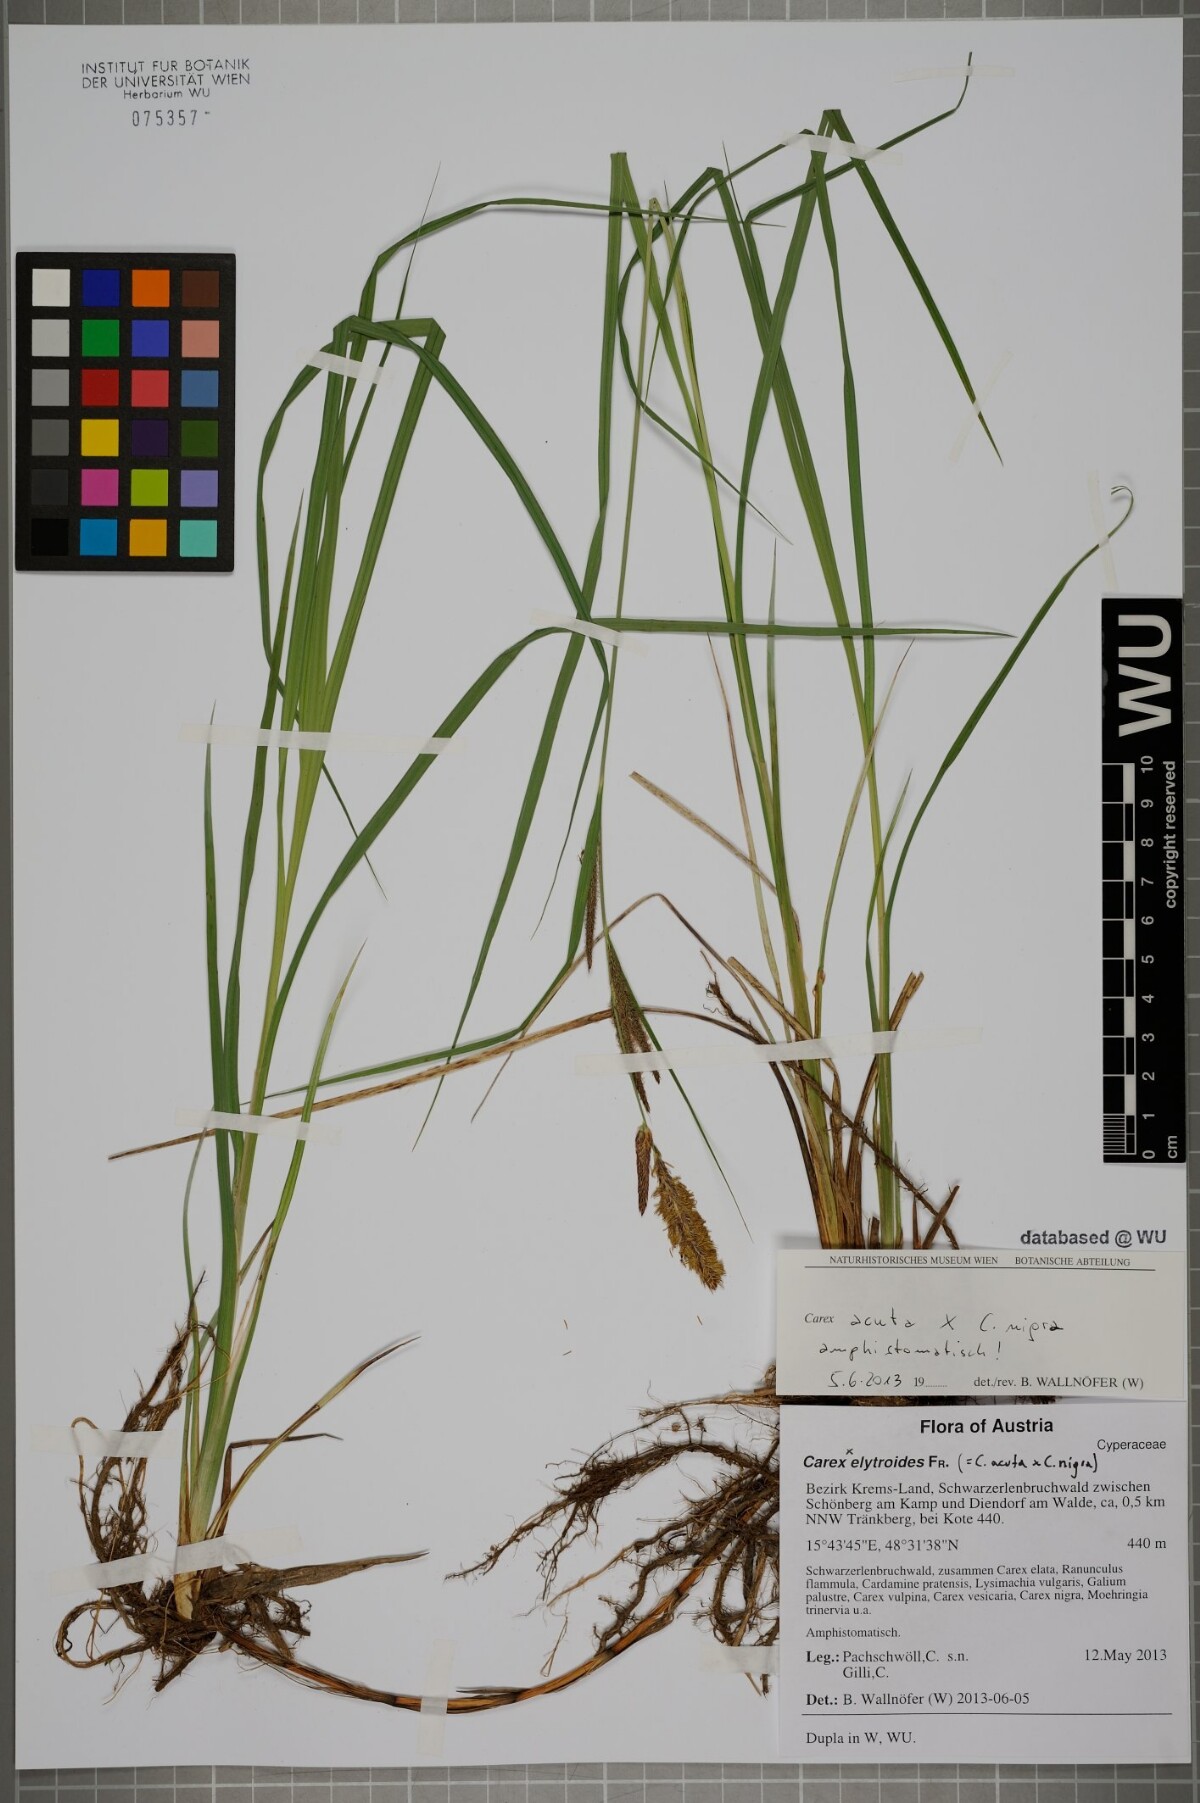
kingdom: Plantae
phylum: Tracheophyta
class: Liliopsida
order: Poales
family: Cyperaceae
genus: Carex
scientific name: Carex elytroides
